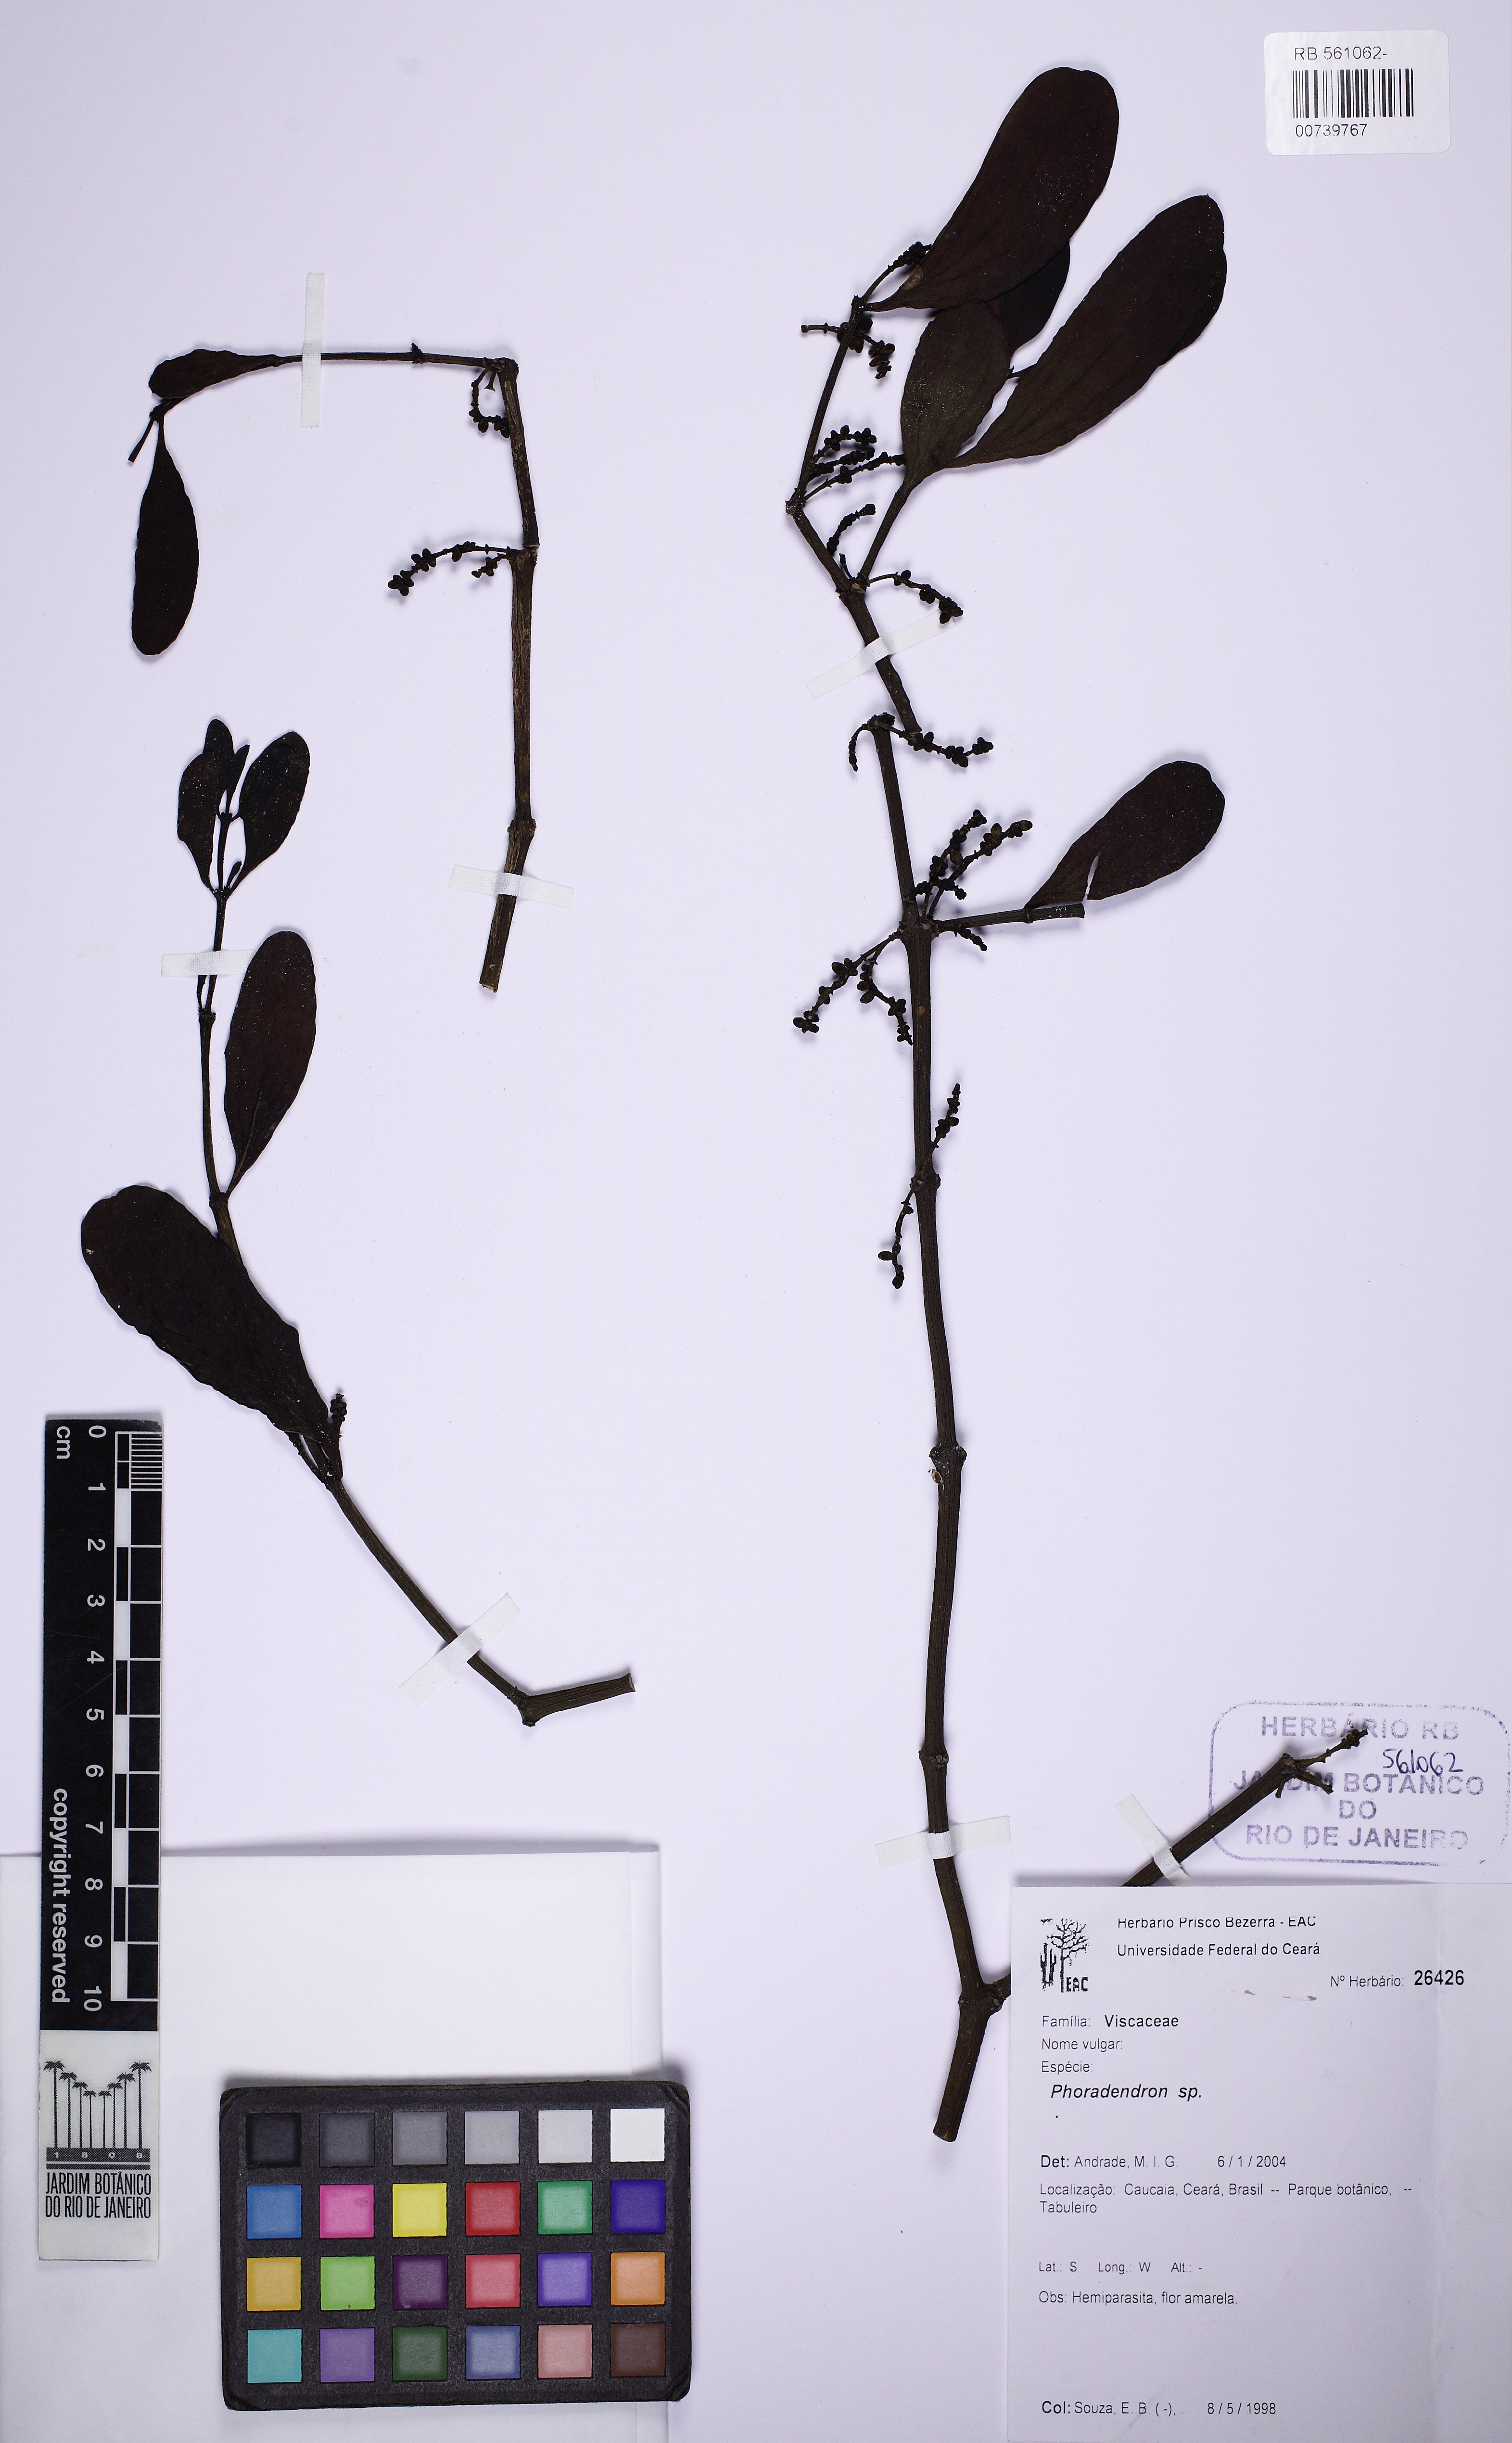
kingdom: Plantae
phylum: Tracheophyta
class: Magnoliopsida
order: Santalales
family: Viscaceae
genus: Phoradendron
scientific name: Phoradendron quadrangulare
